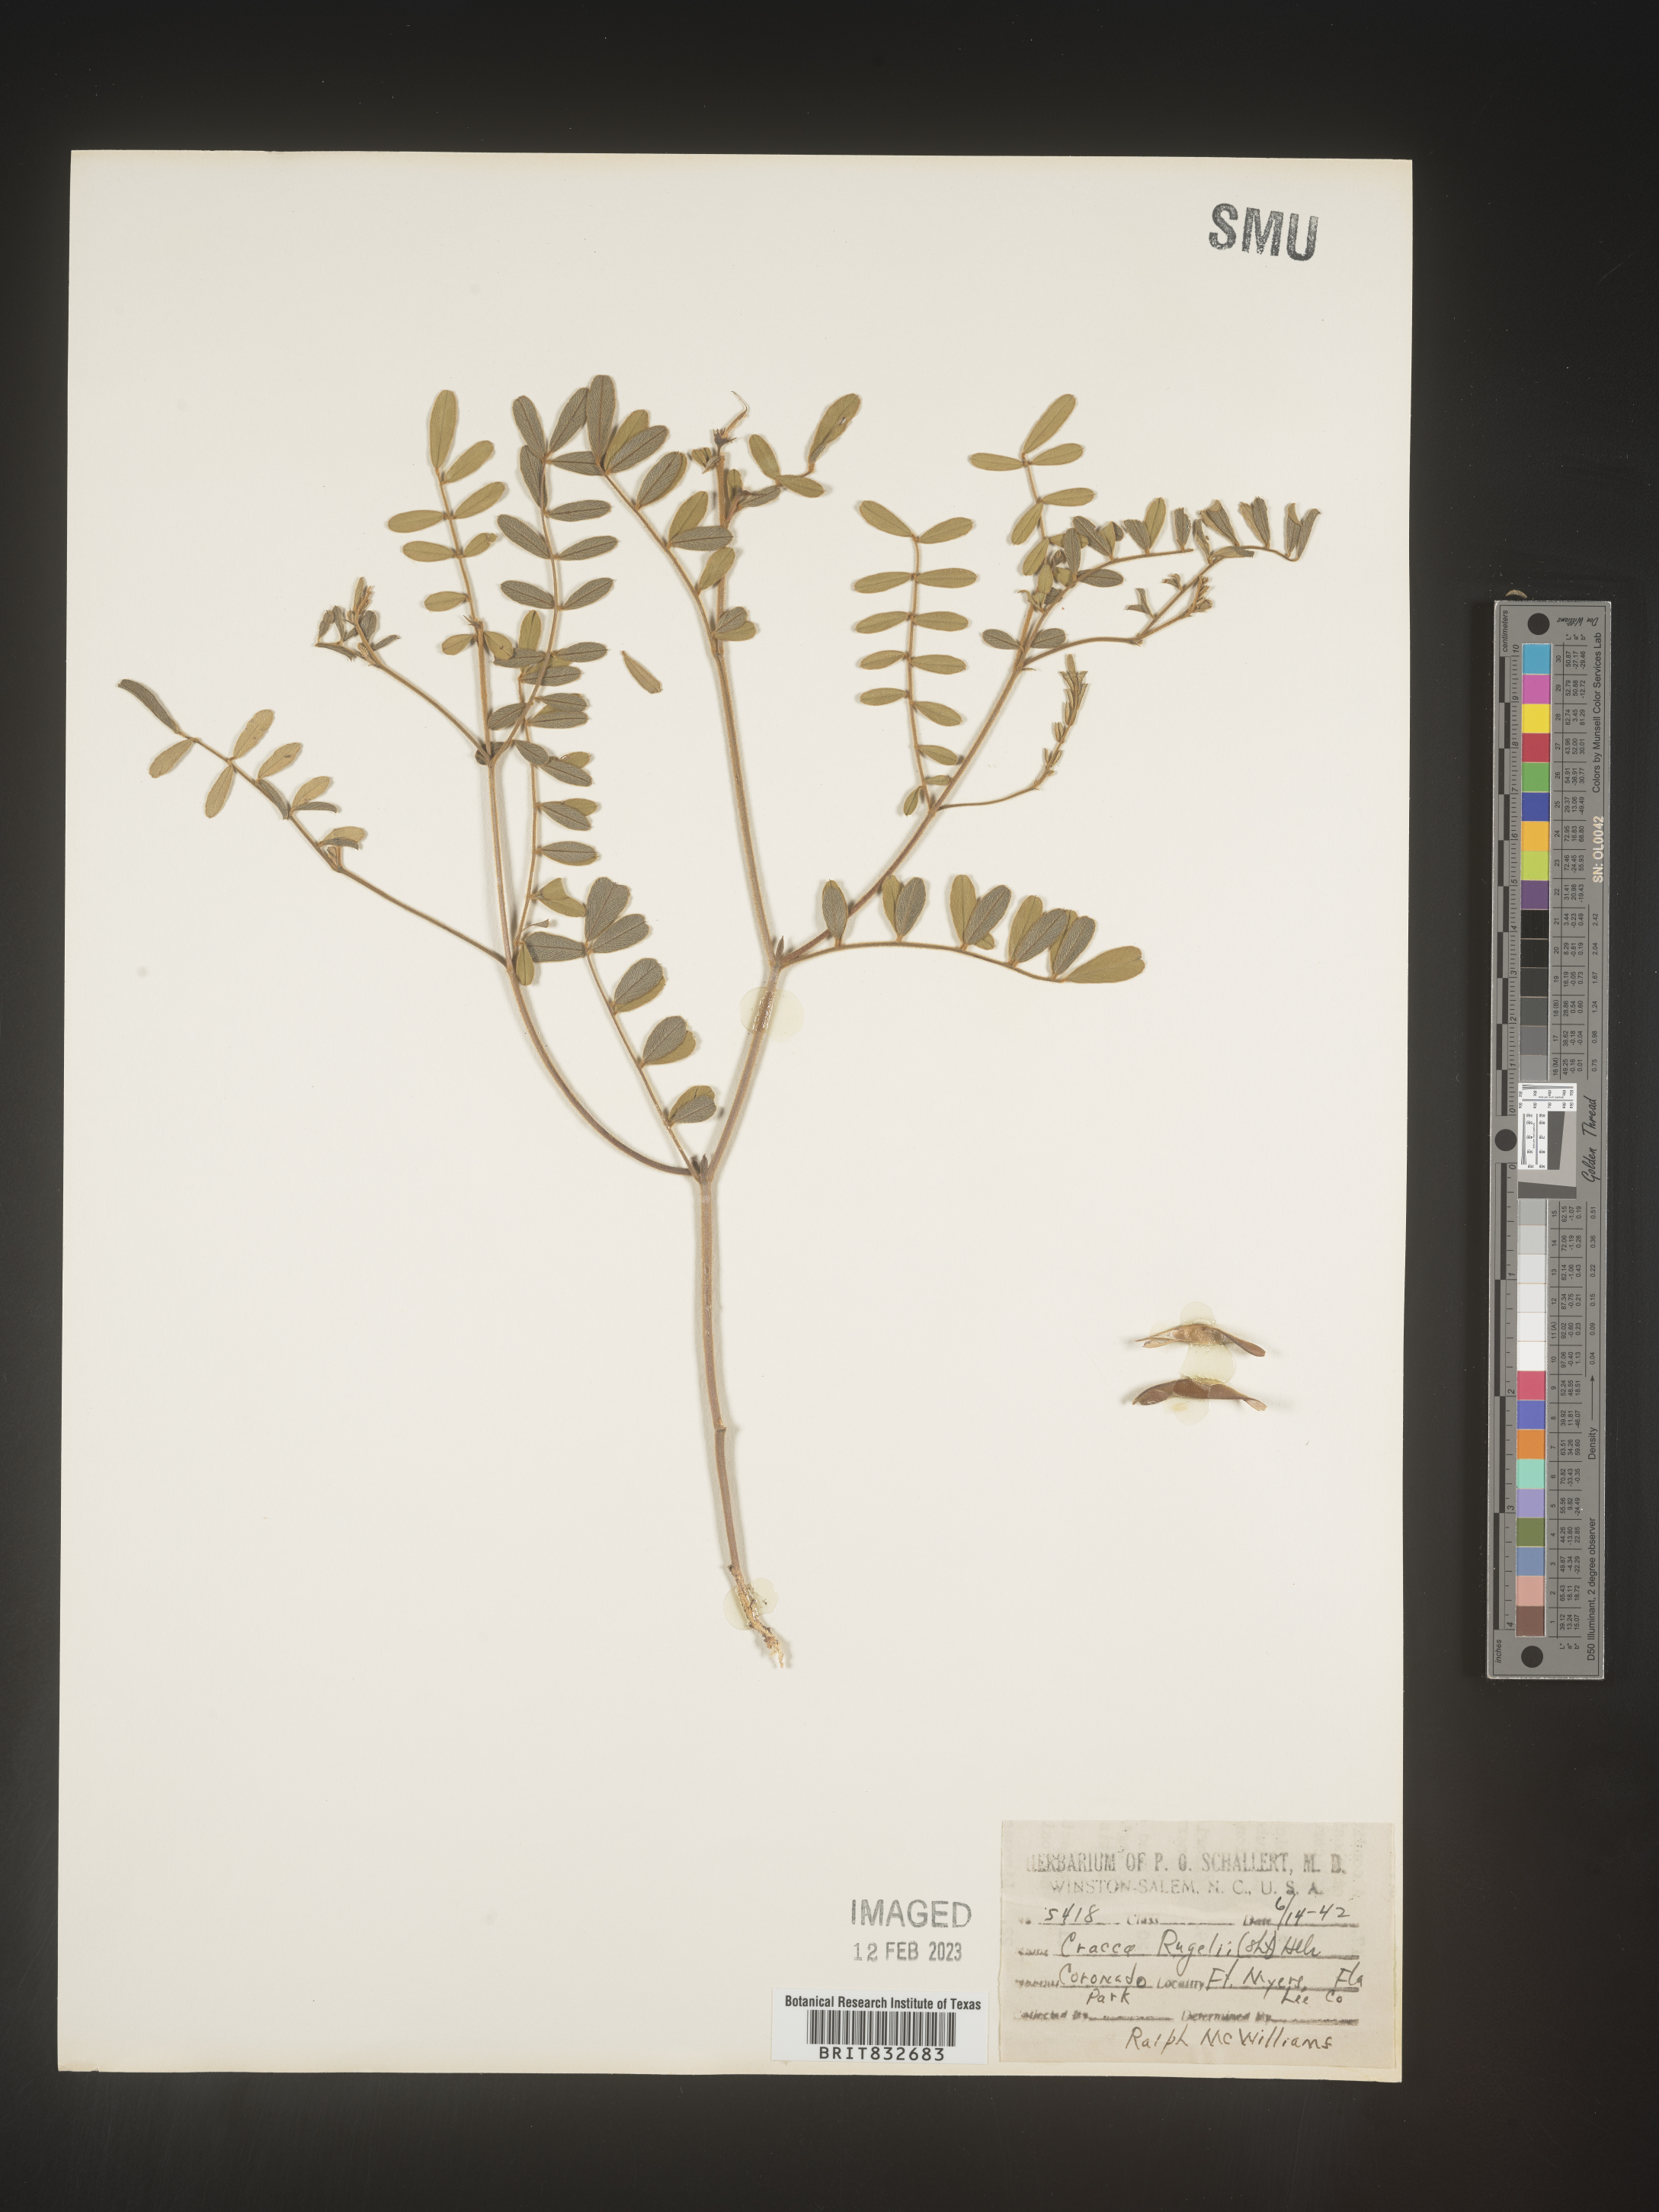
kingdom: Plantae
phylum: Tracheophyta
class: Magnoliopsida
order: Fabales
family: Fabaceae
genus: Tephrosia
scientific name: Tephrosia rugelii
